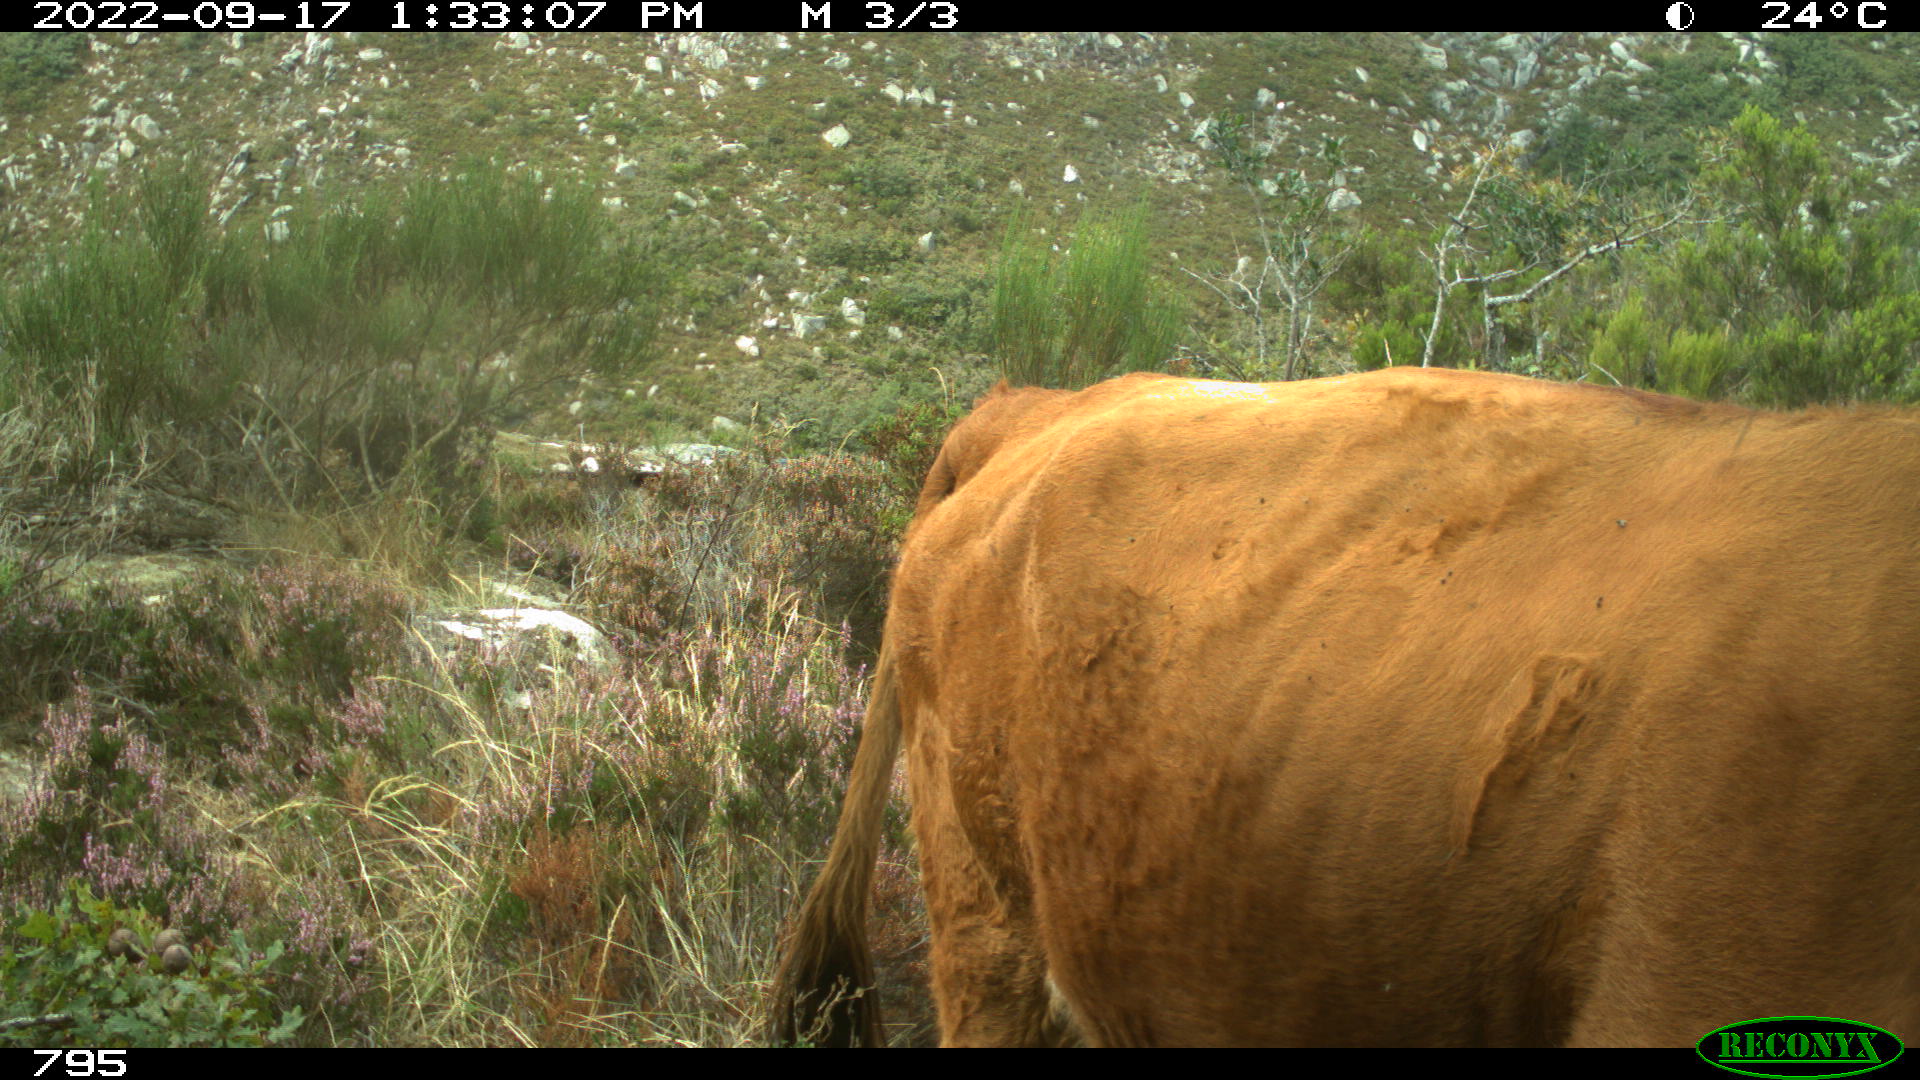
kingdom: Animalia
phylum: Chordata
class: Mammalia
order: Artiodactyla
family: Bovidae
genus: Bos
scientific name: Bos taurus
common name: Domesticated cattle
